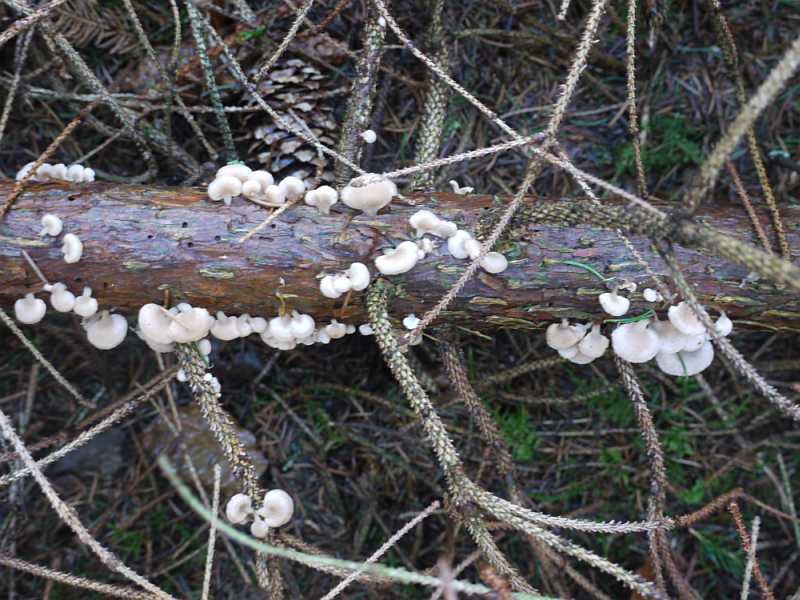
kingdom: Fungi
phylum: Basidiomycota
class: Agaricomycetes
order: Agaricales
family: Mycenaceae
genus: Panellus
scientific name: Panellus mitis
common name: mild epaulethat
